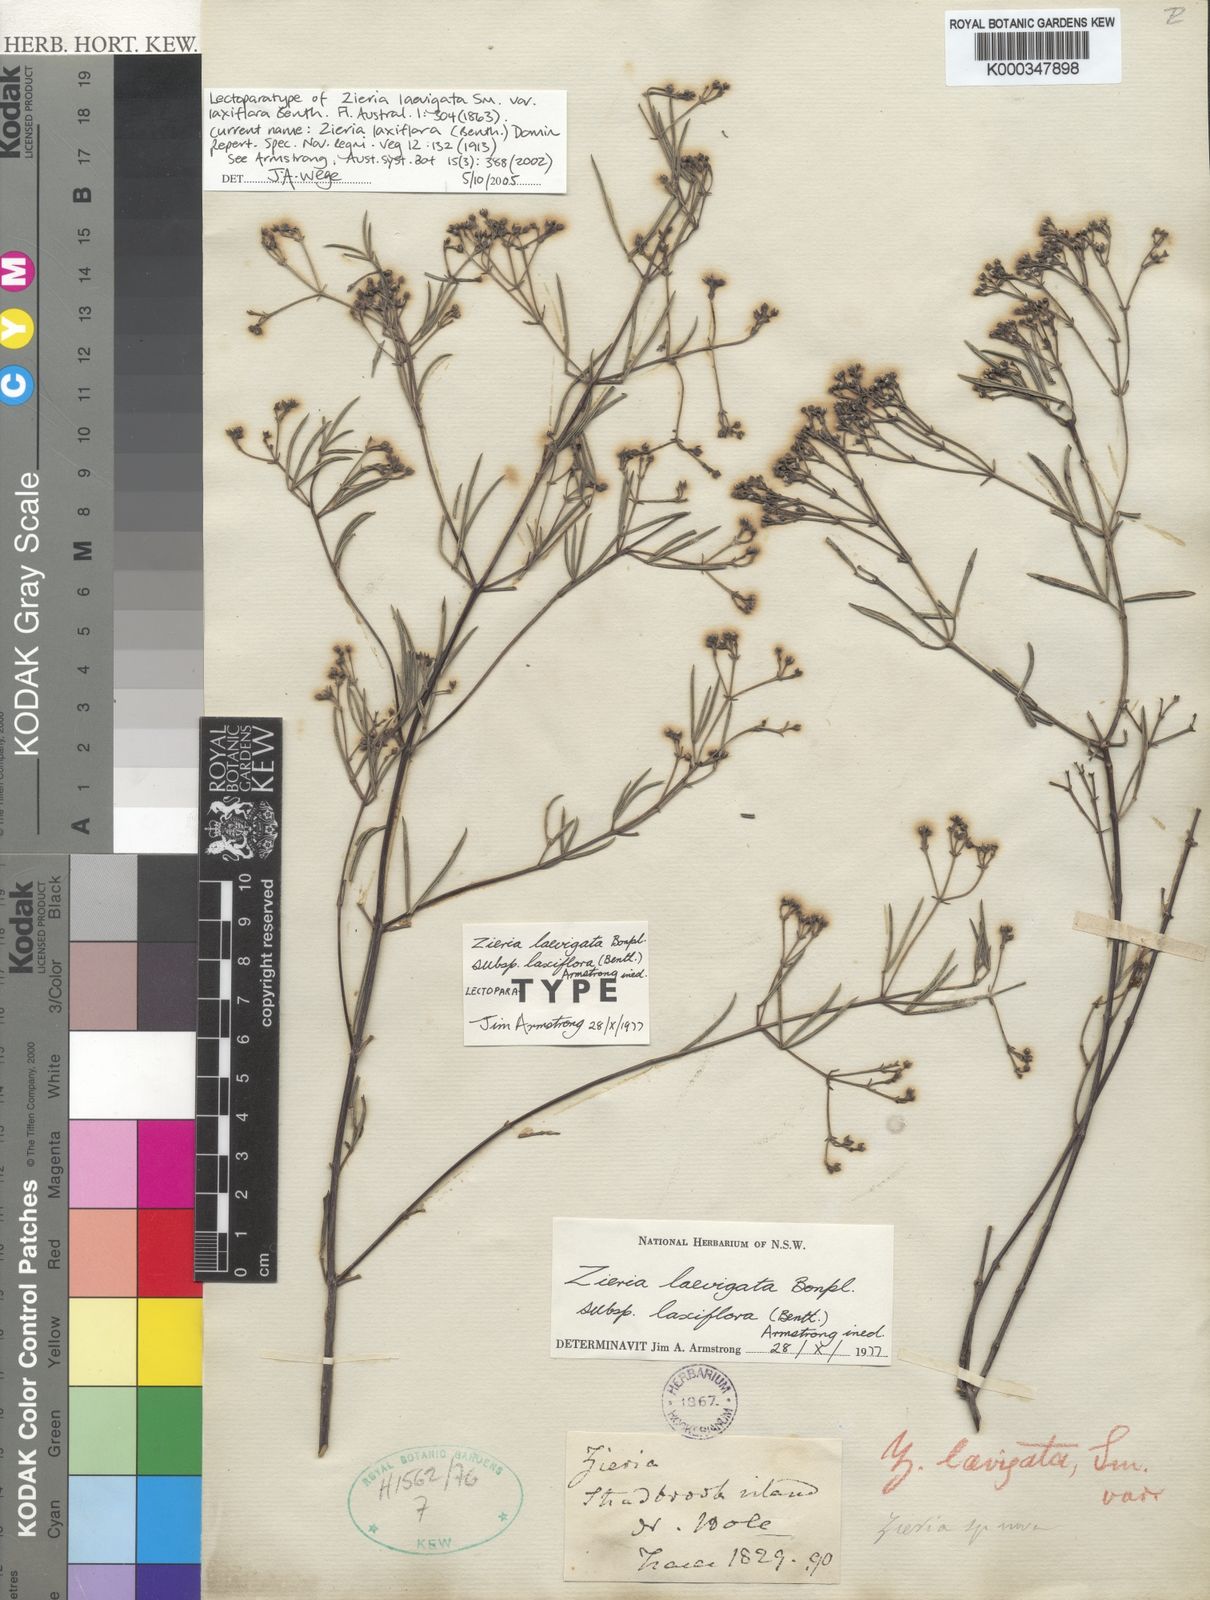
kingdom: Plantae
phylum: Tracheophyta
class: Magnoliopsida
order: Sapindales
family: Rutaceae
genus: Zieria
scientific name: Zieria laxiflora
